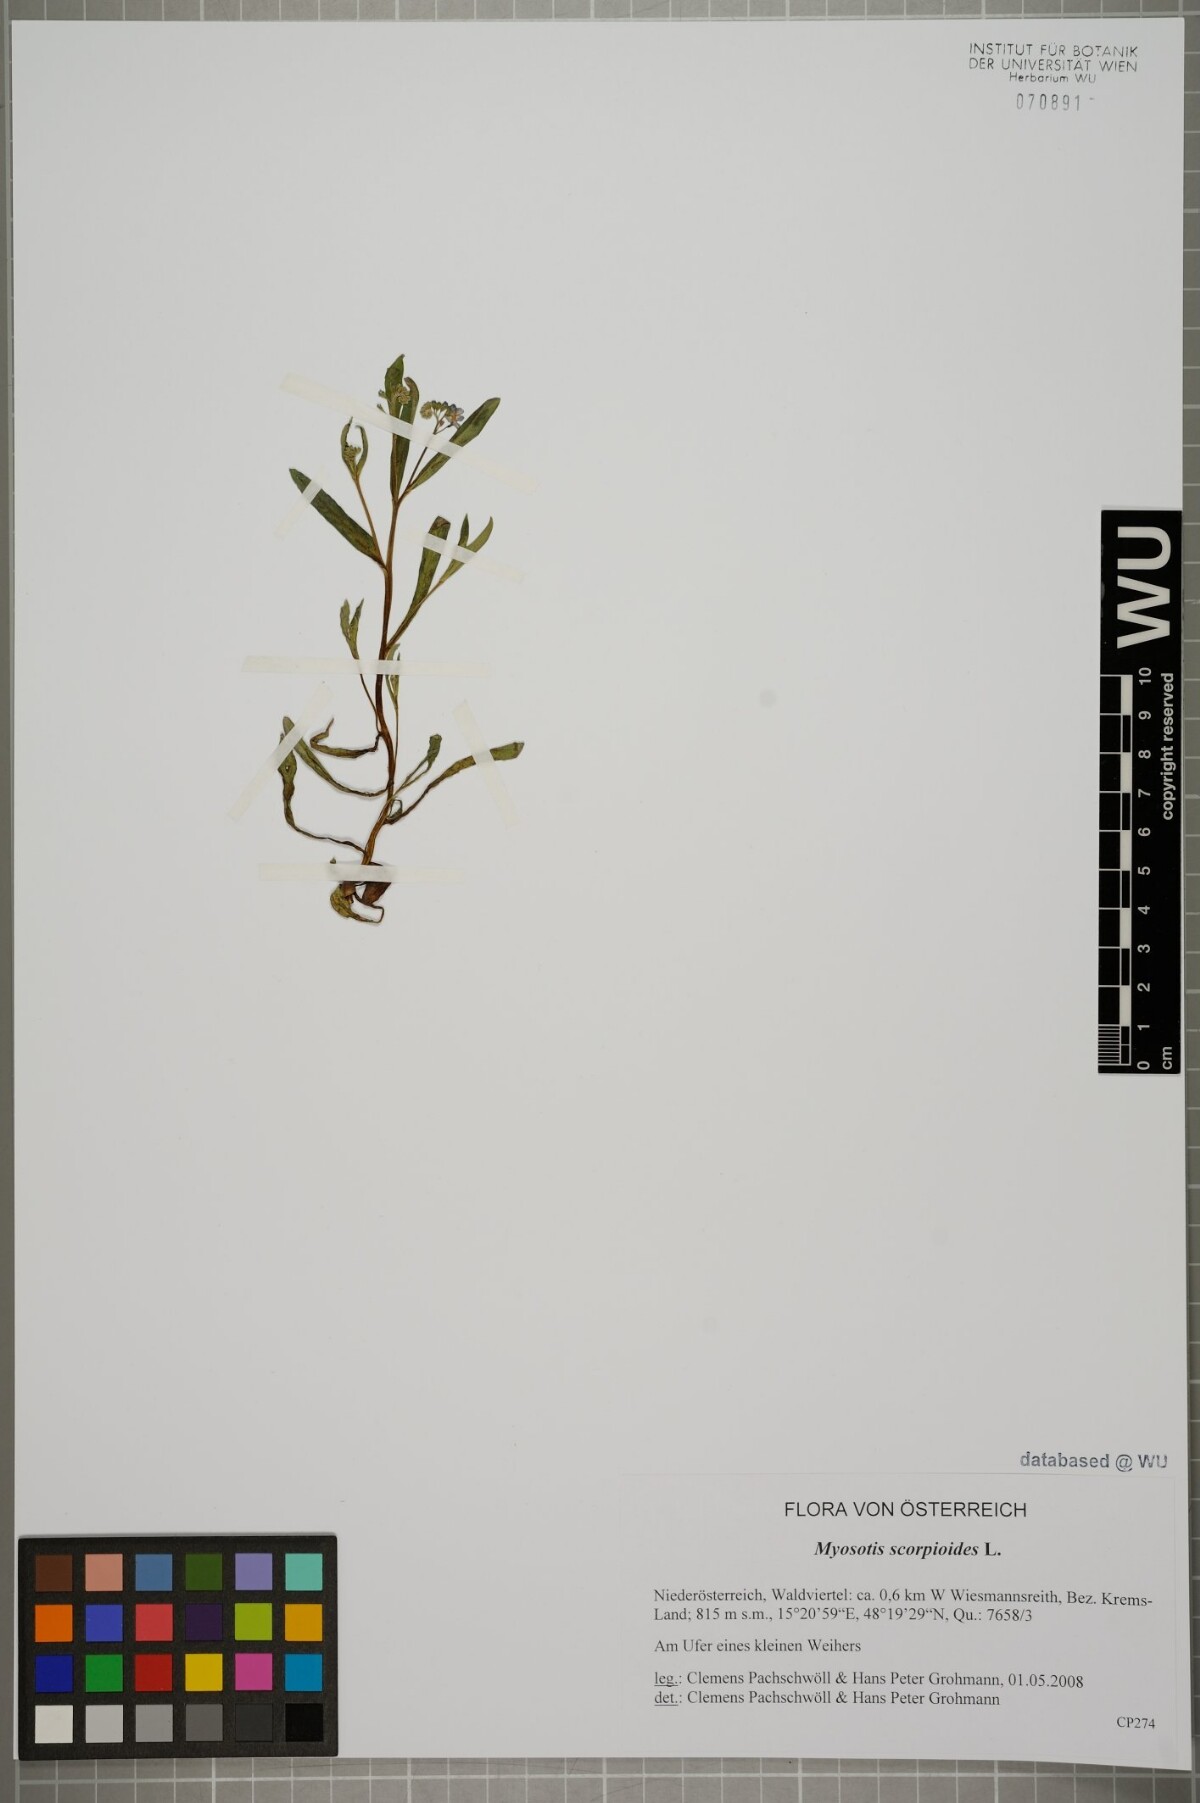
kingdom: Plantae
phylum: Tracheophyta
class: Magnoliopsida
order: Boraginales
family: Boraginaceae
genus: Myosotis
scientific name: Myosotis scorpioides
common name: Water forget-me-not
